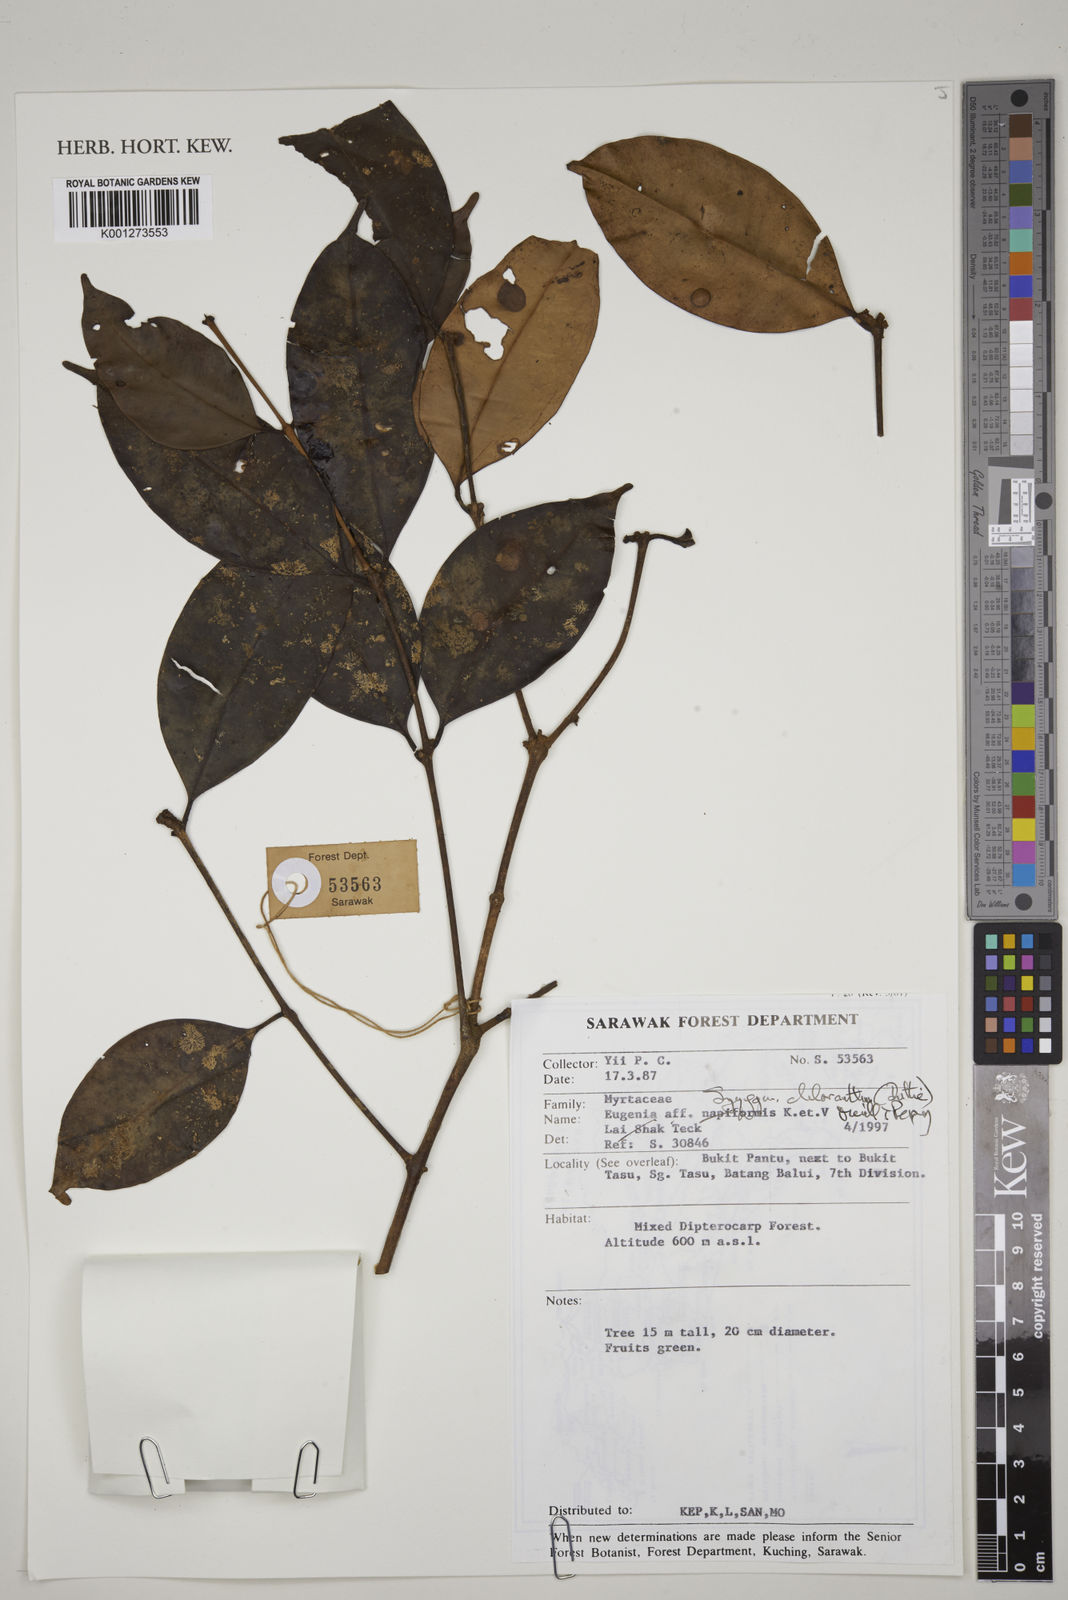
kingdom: Plantae
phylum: Tracheophyta
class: Magnoliopsida
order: Myrtales
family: Myrtaceae
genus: Syzygium
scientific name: Syzygium chloranthum
